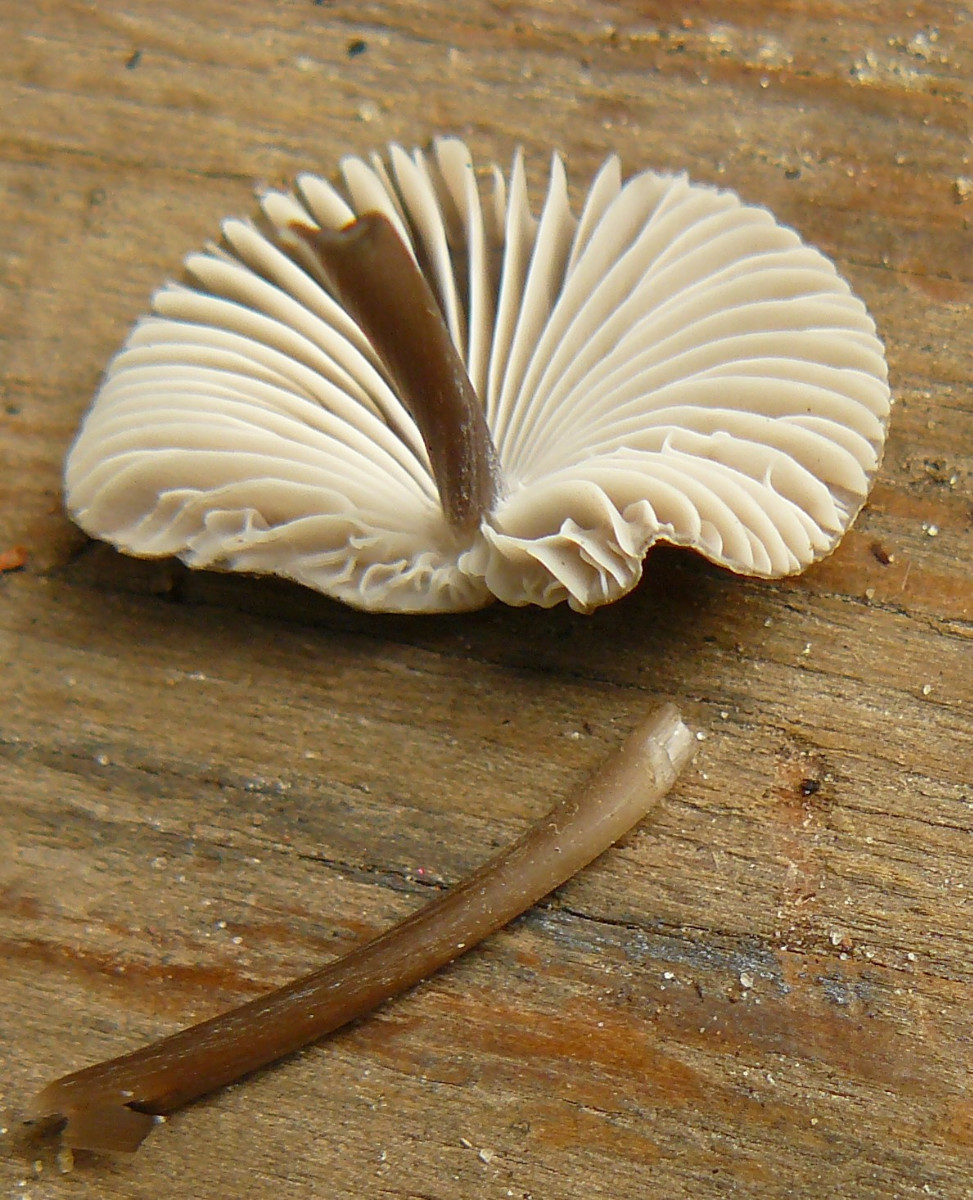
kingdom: Fungi
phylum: Basidiomycota
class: Agaricomycetes
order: Agaricales
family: Mycenaceae
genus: Mycena
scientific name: Mycena polygramma
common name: mangestribet huesvamp
